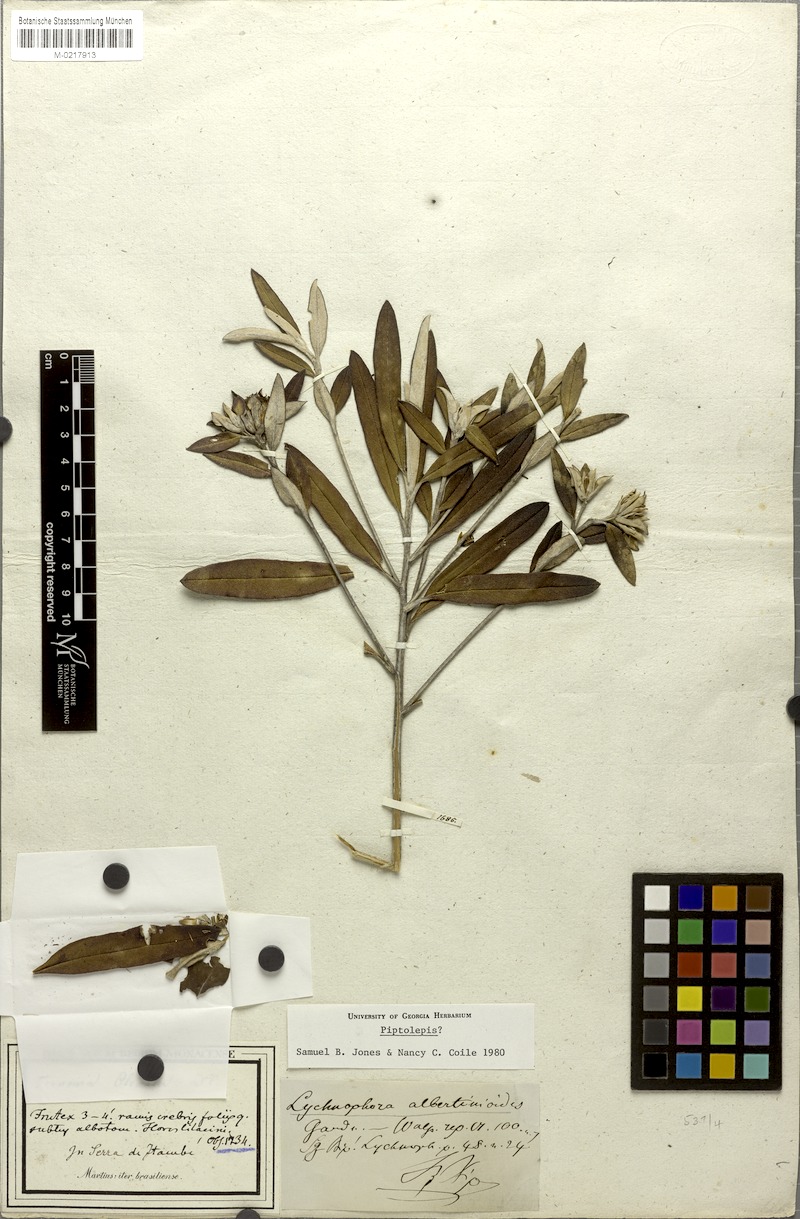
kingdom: Plantae
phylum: Tracheophyta
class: Magnoliopsida
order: Asterales
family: Asteraceae
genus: Lychnophora
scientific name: Lychnophora albertinioides
